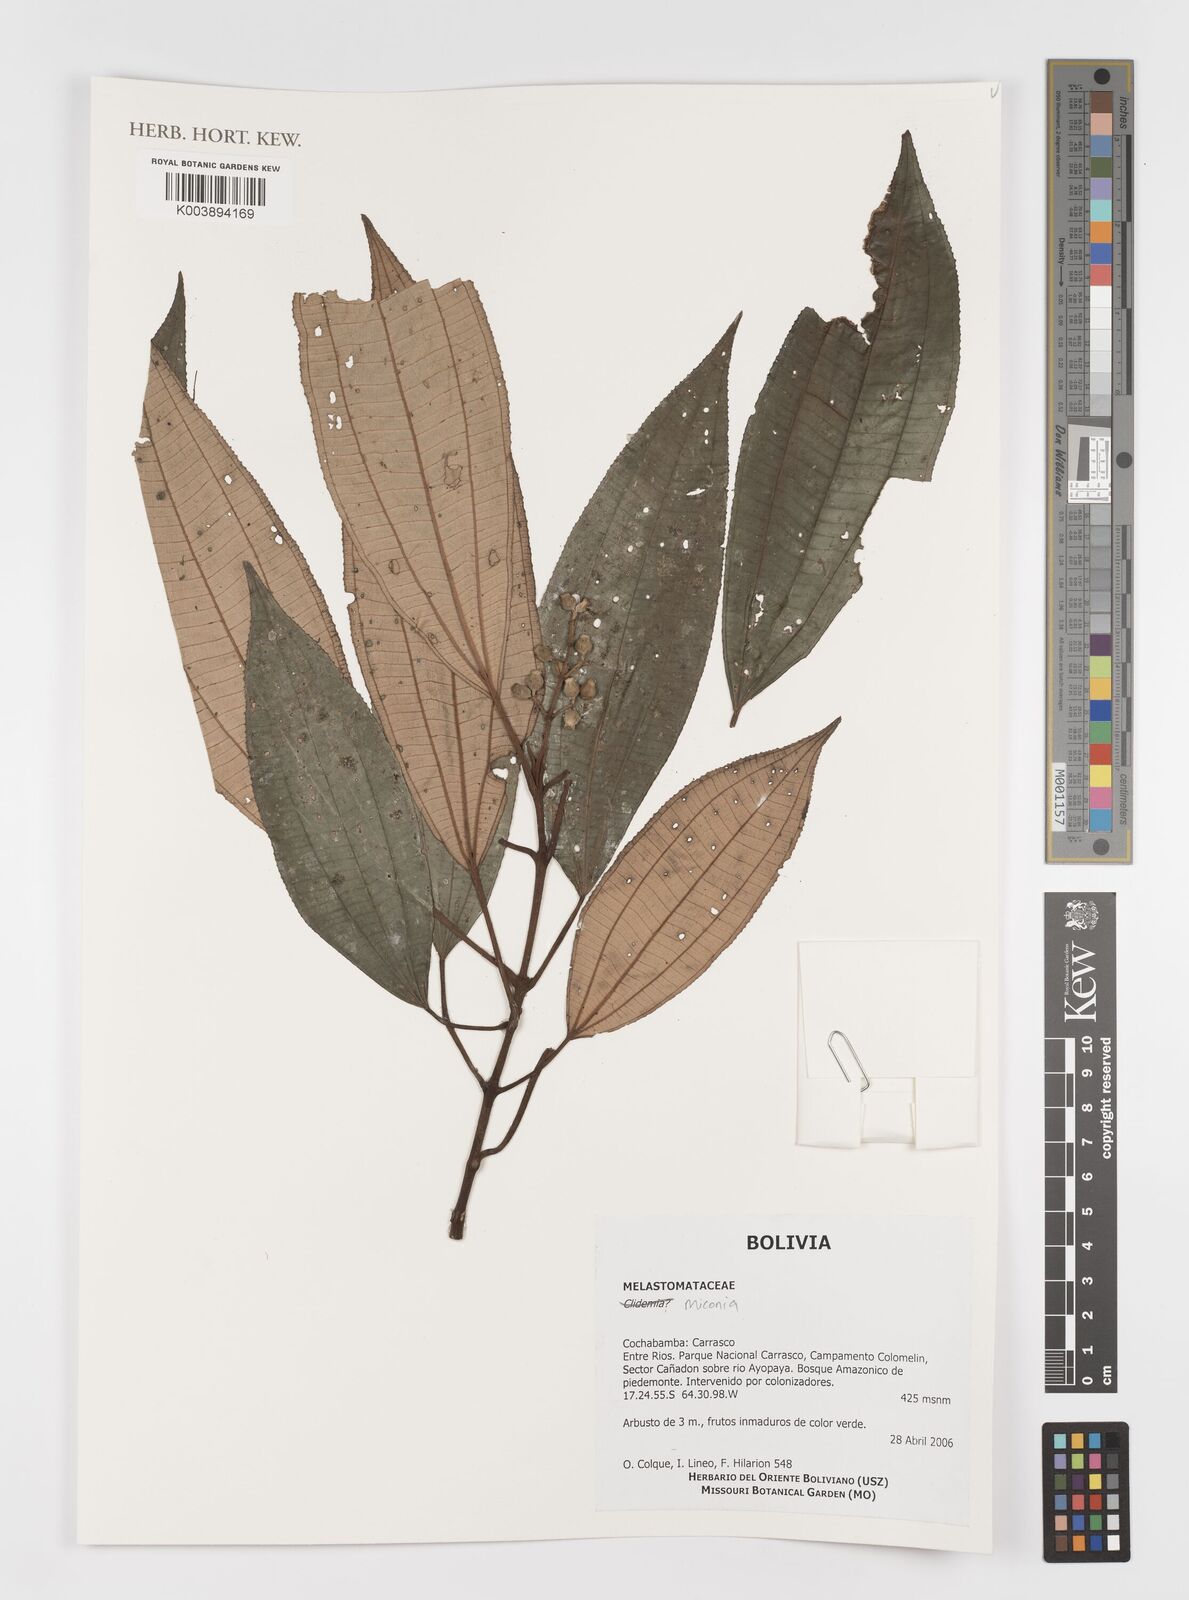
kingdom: Plantae
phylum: Tracheophyta
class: Magnoliopsida
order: Myrtales
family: Melastomataceae
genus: Miconia
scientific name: Miconia
